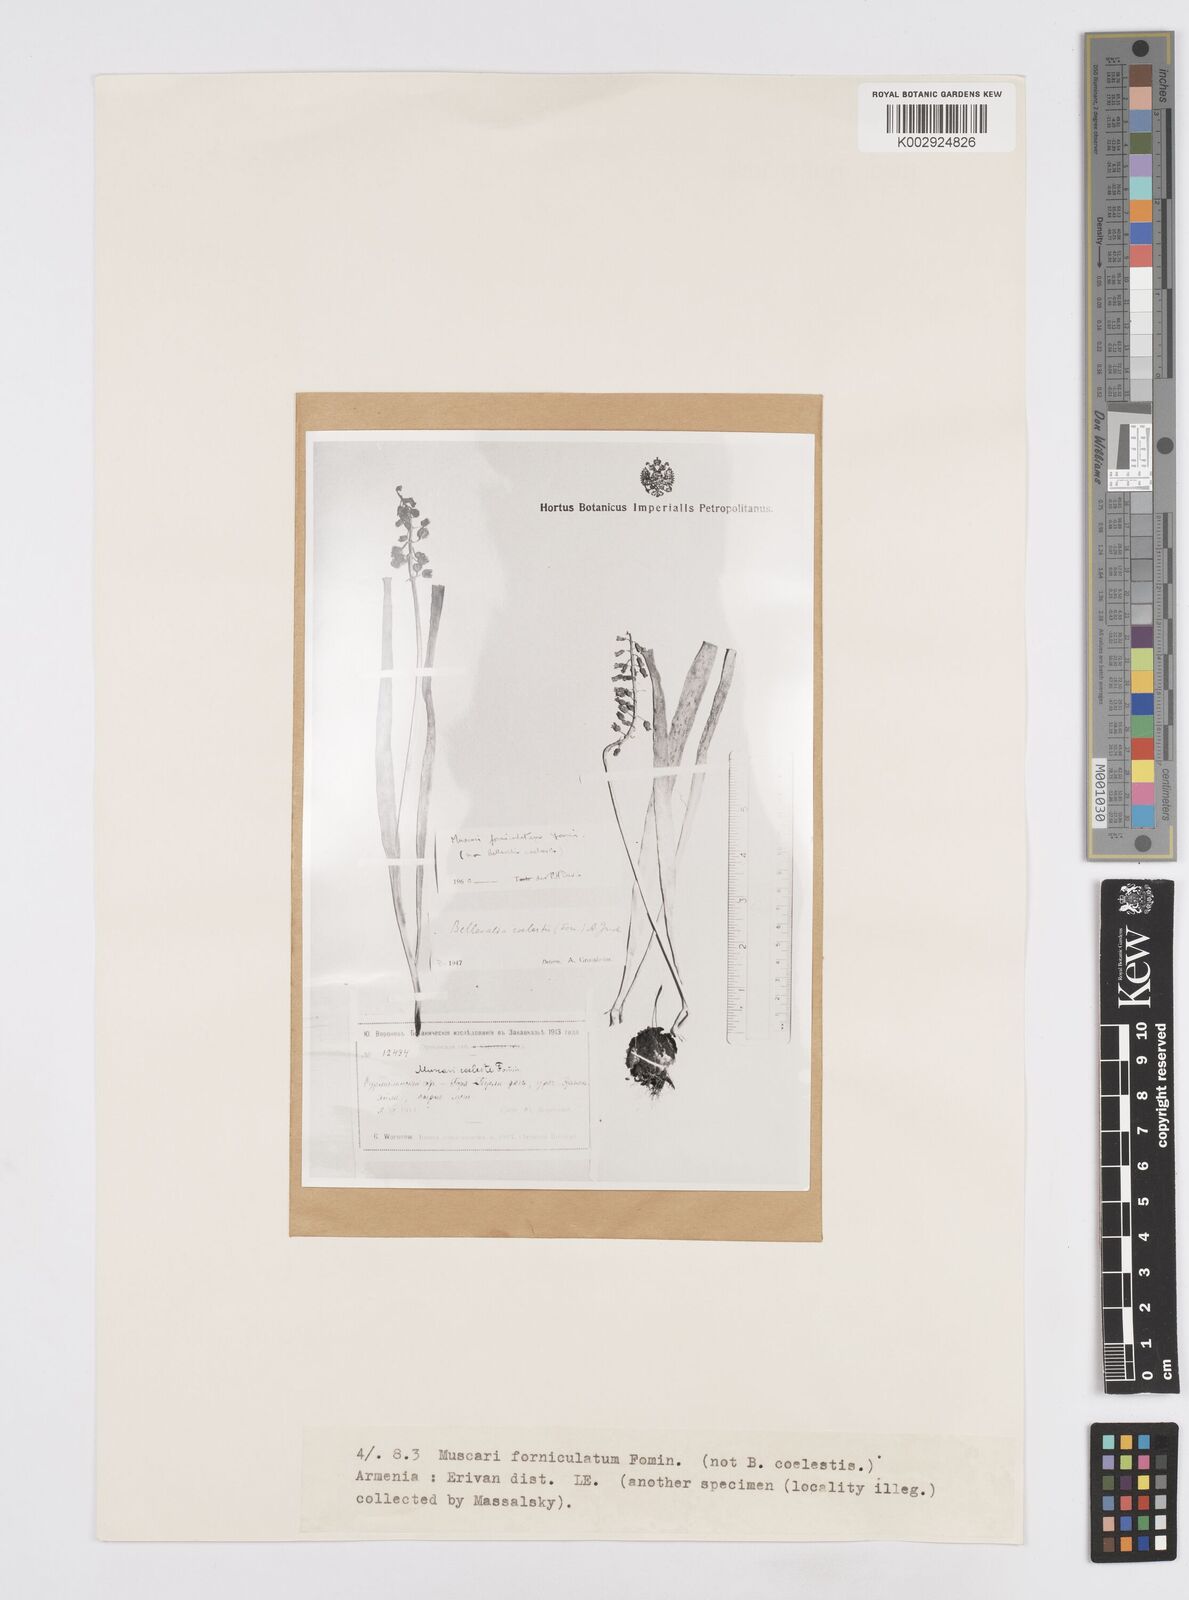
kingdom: Plantae
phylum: Tracheophyta
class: Liliopsida
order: Asparagales
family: Asparagaceae
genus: Bellevalia
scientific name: Bellevalia
